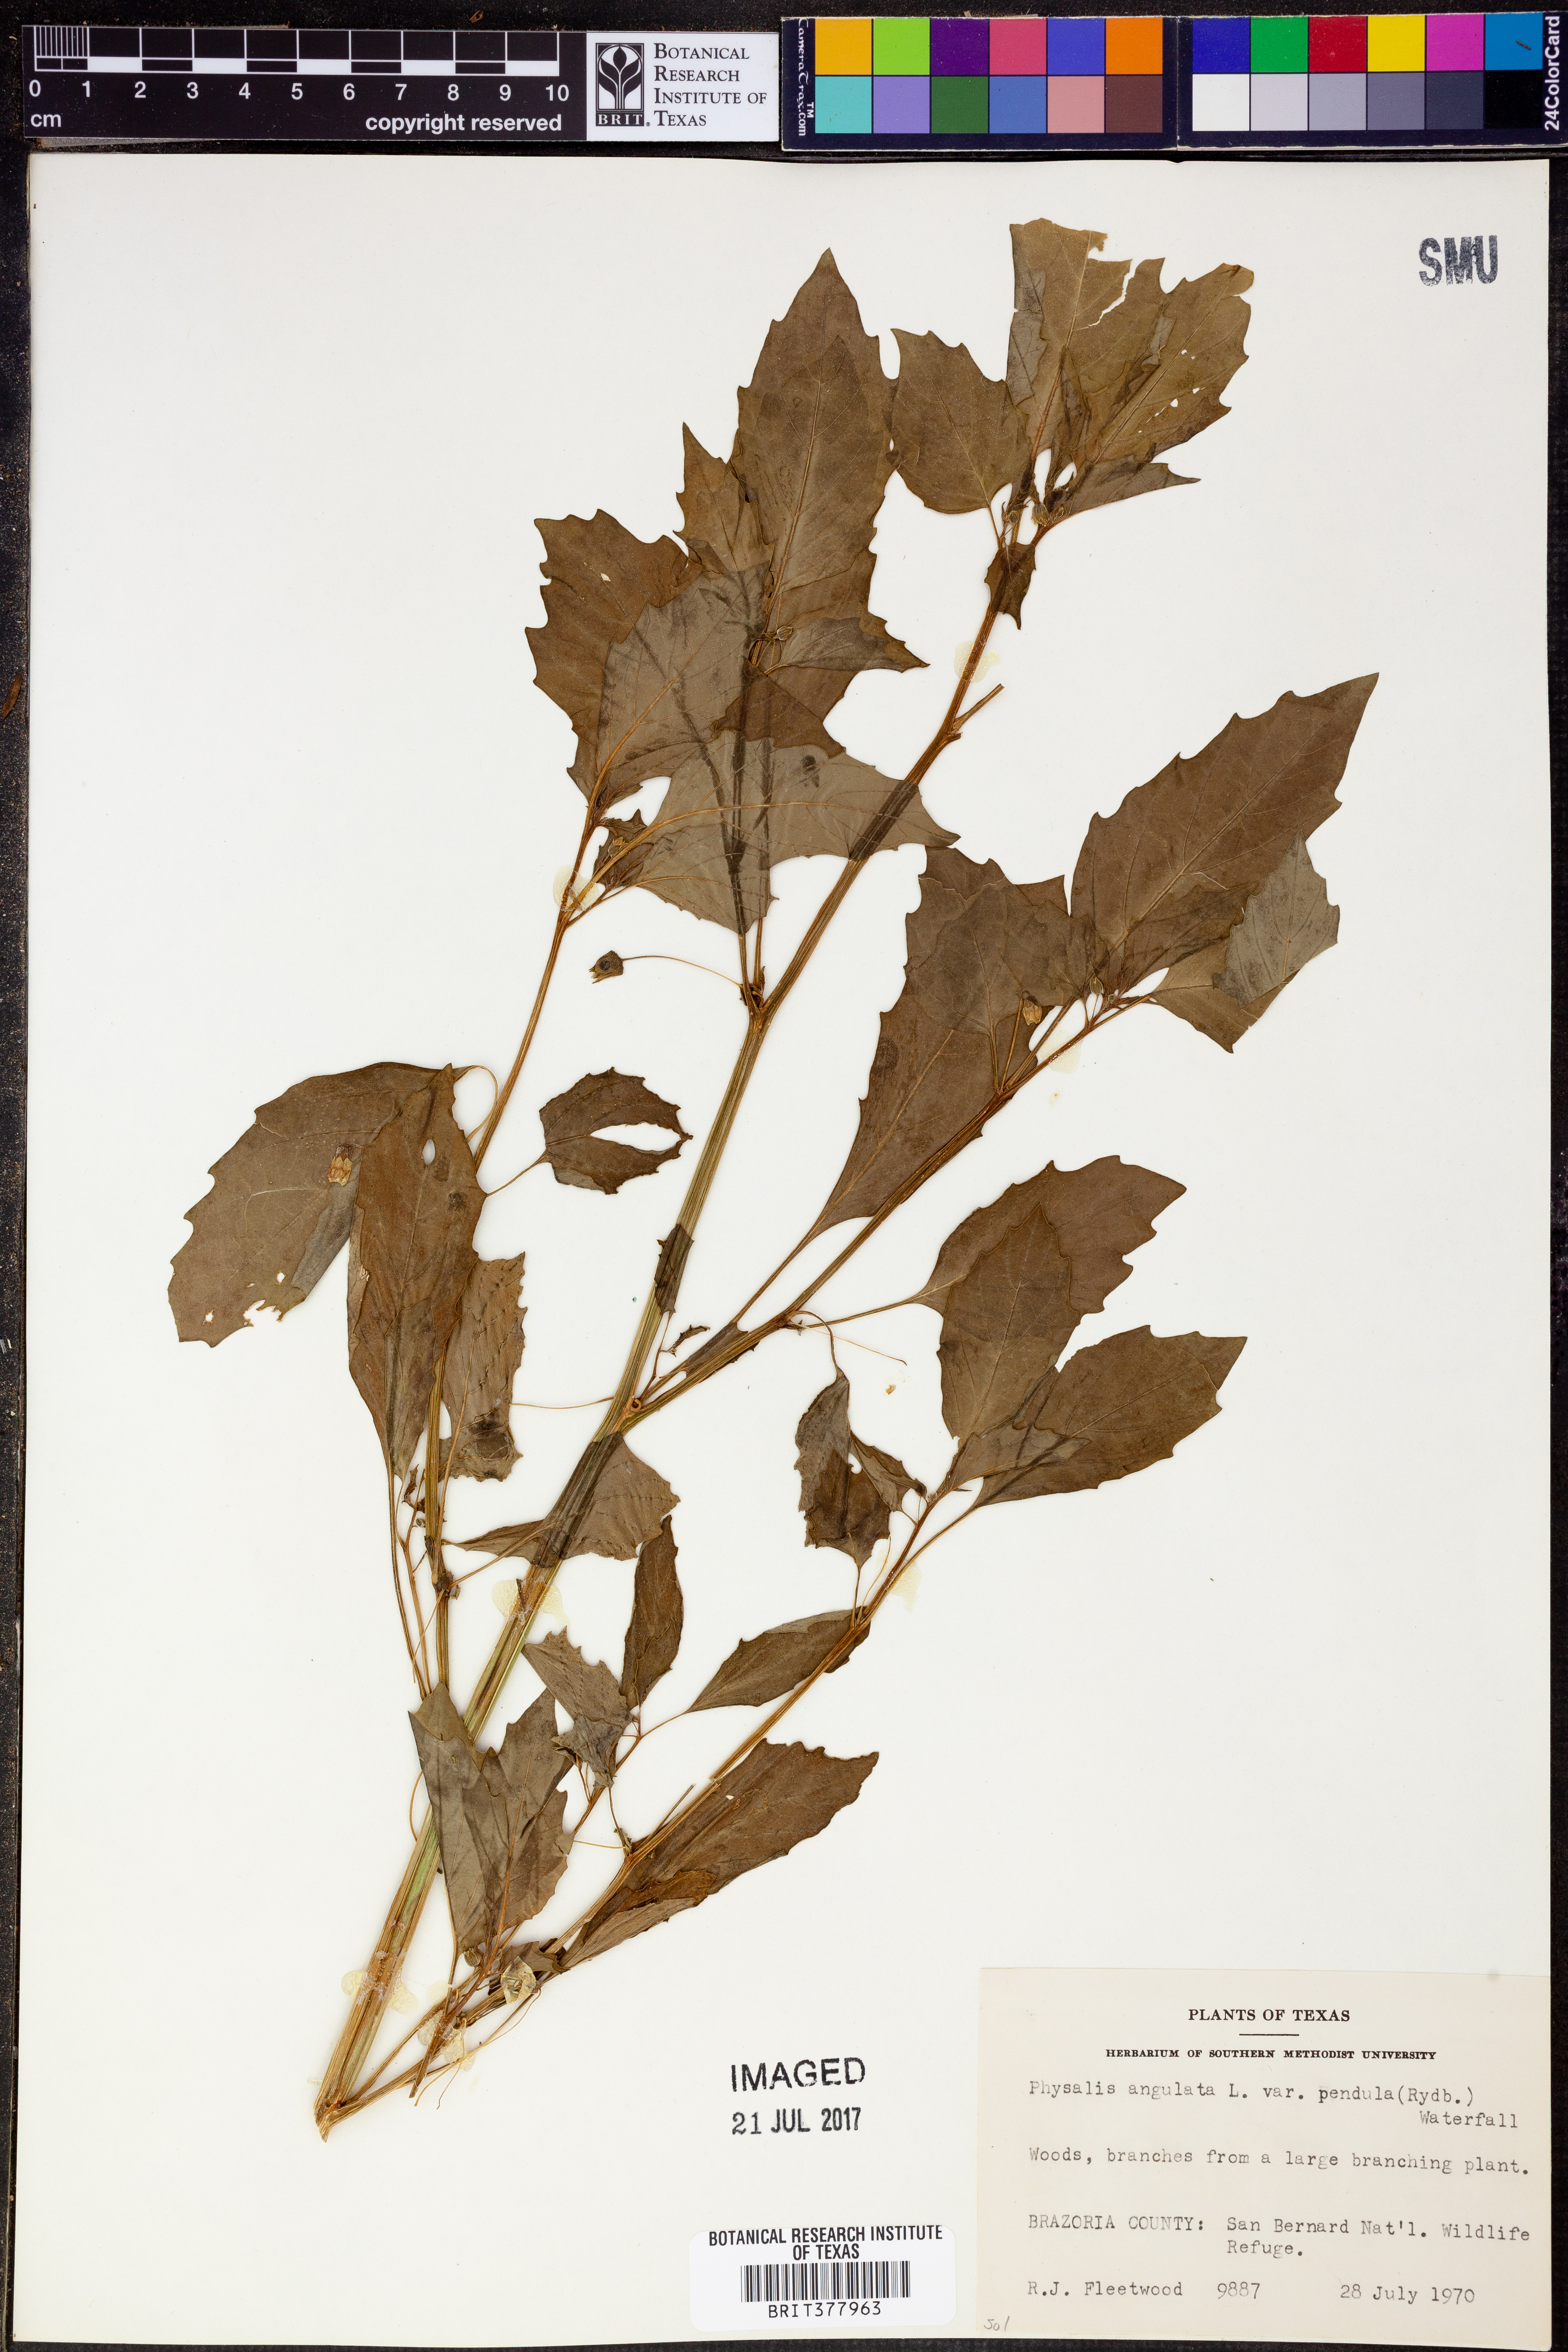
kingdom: Plantae
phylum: Tracheophyta
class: Magnoliopsida
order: Solanales
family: Solanaceae
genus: Physalis
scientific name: Physalis angulata
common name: Angular winter-cherry
